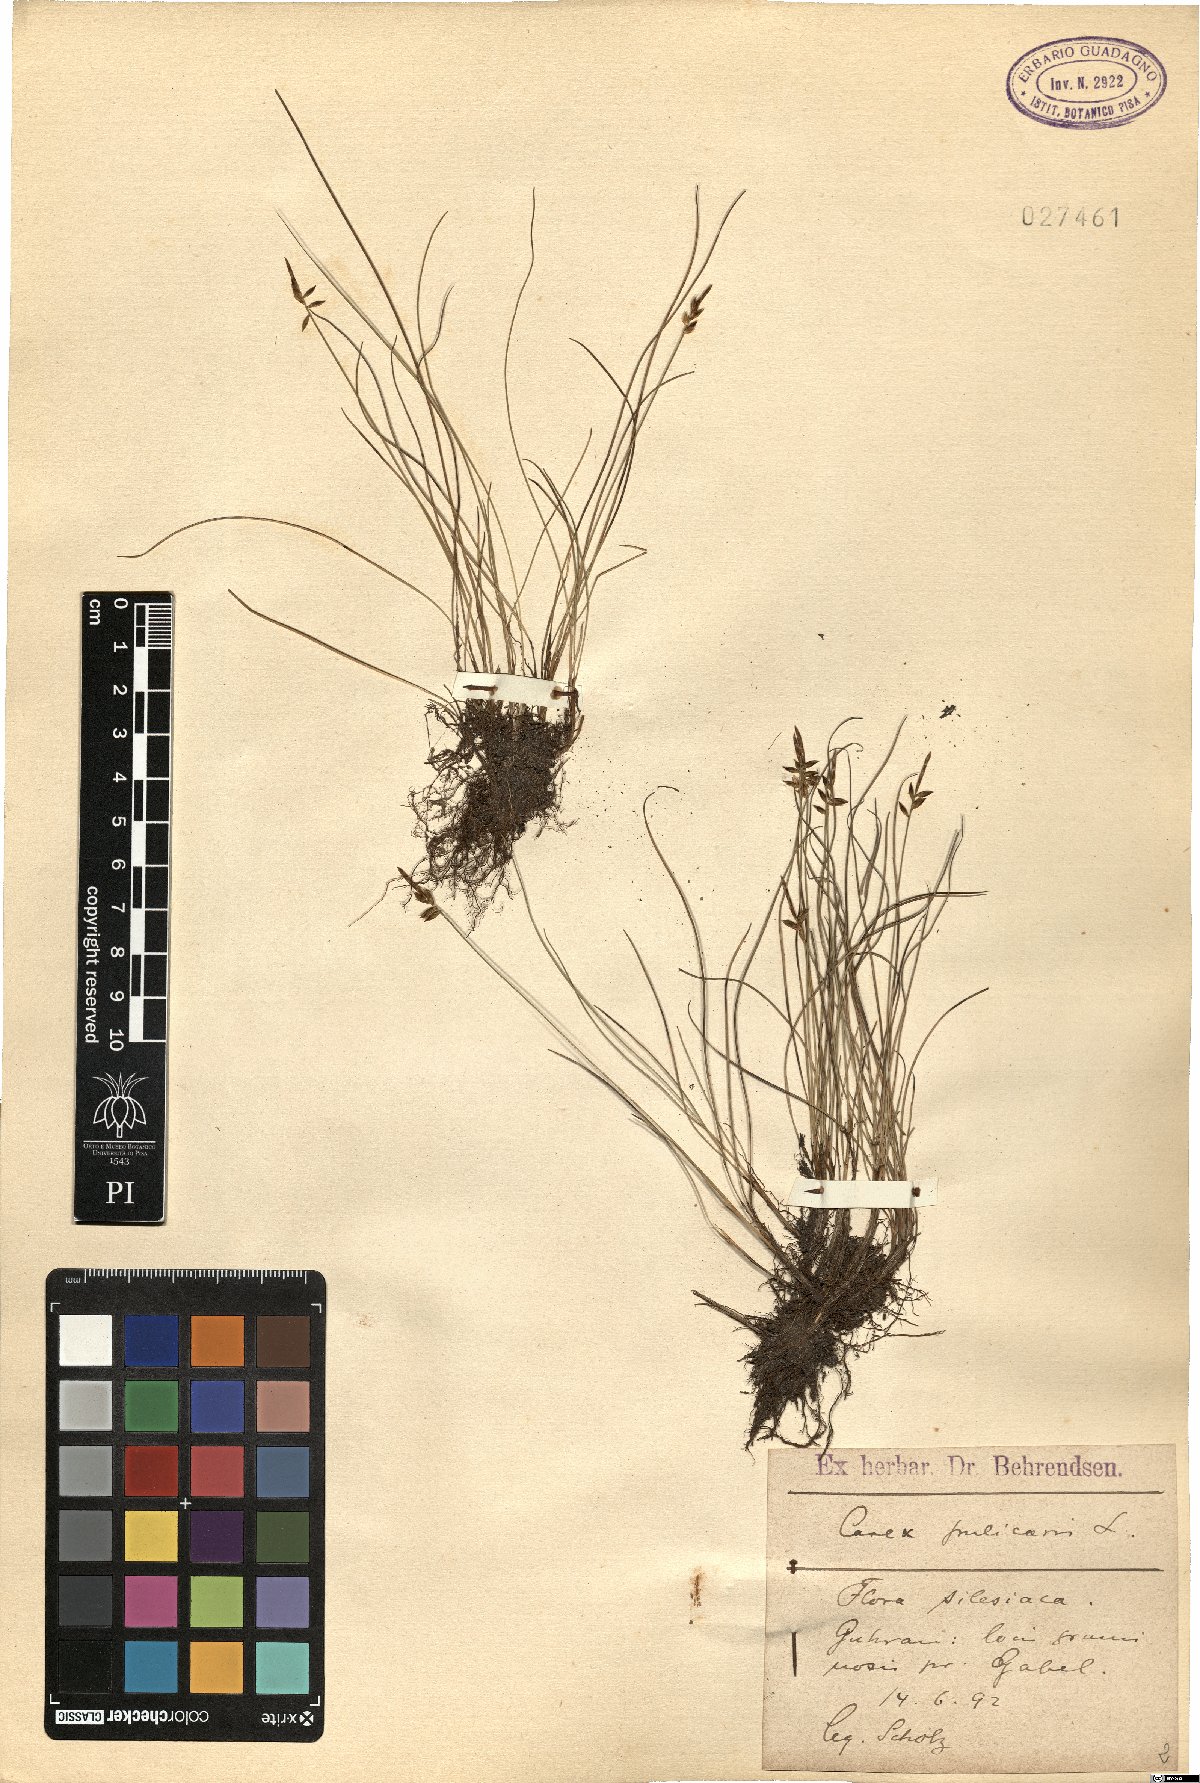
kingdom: Plantae
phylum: Tracheophyta
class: Liliopsida
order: Poales
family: Cyperaceae
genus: Carex
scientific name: Carex pulicaris
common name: Flea sedge
